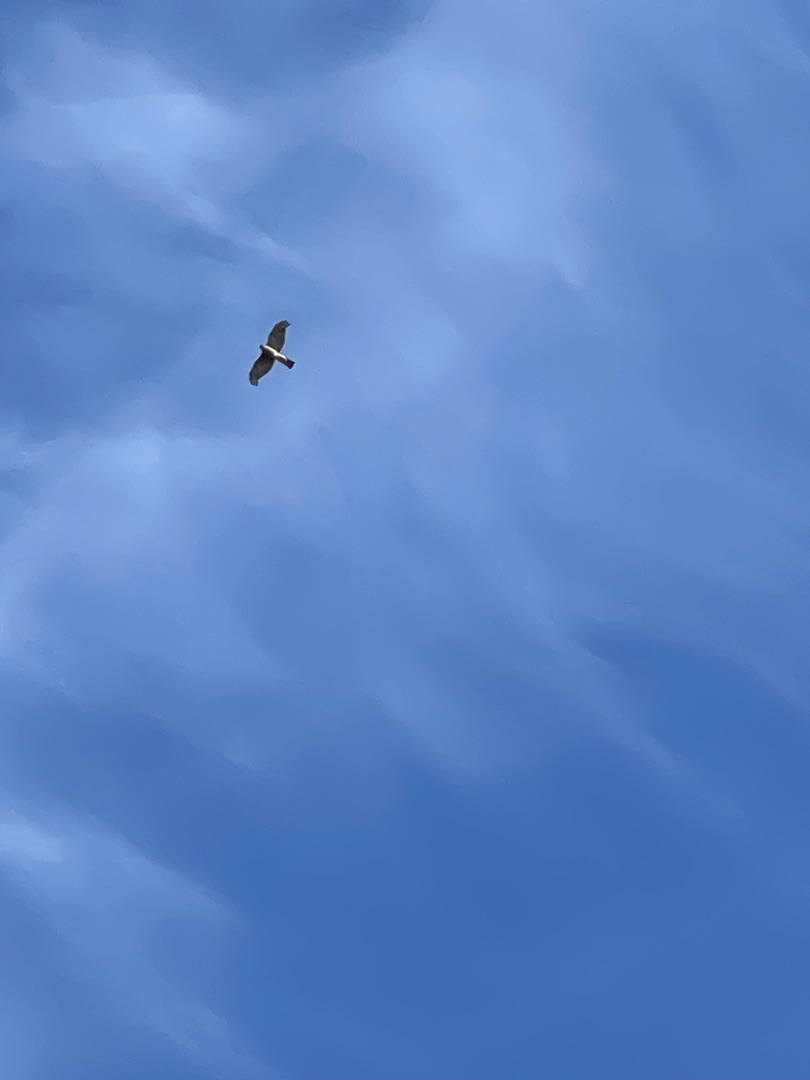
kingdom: Animalia
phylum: Chordata
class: Aves
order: Accipitriformes
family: Accipitridae
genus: Accipiter
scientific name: Accipiter nisus
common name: Spurvehøg
